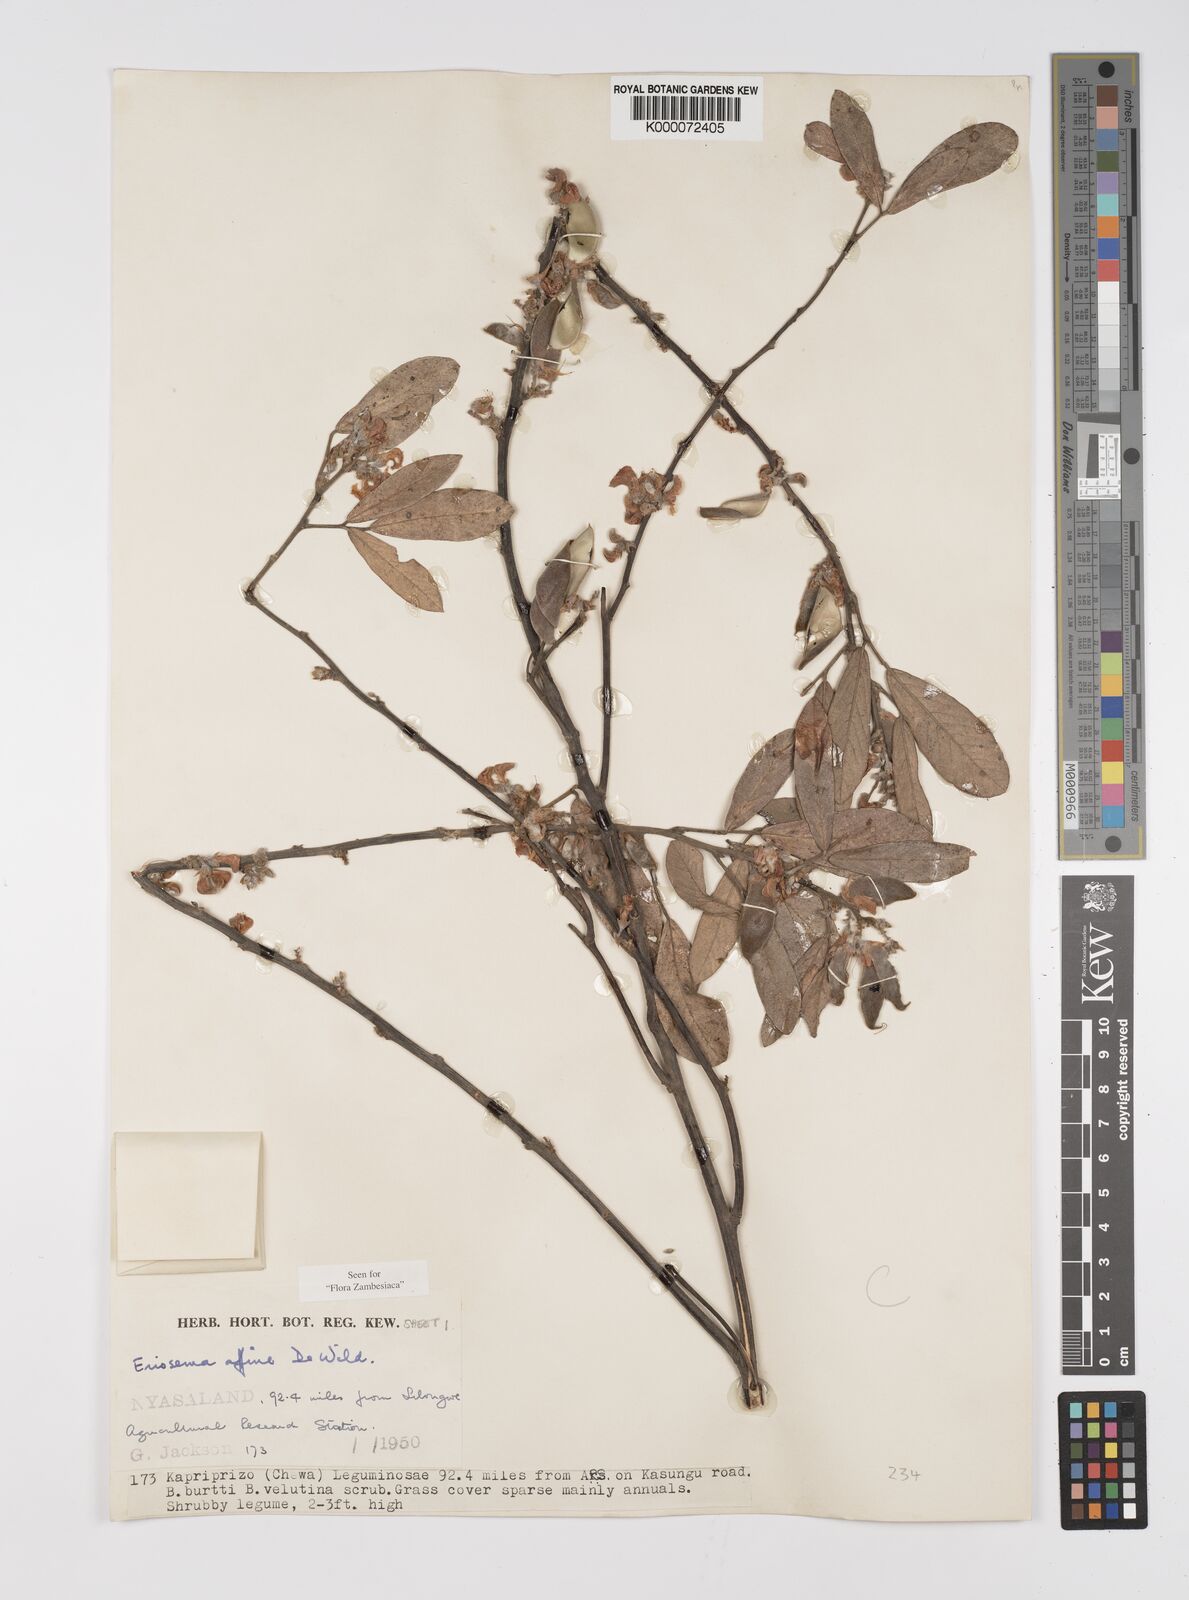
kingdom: Plantae
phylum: Tracheophyta
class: Magnoliopsida
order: Fabales
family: Fabaceae
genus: Eriosema
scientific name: Eriosema affine
